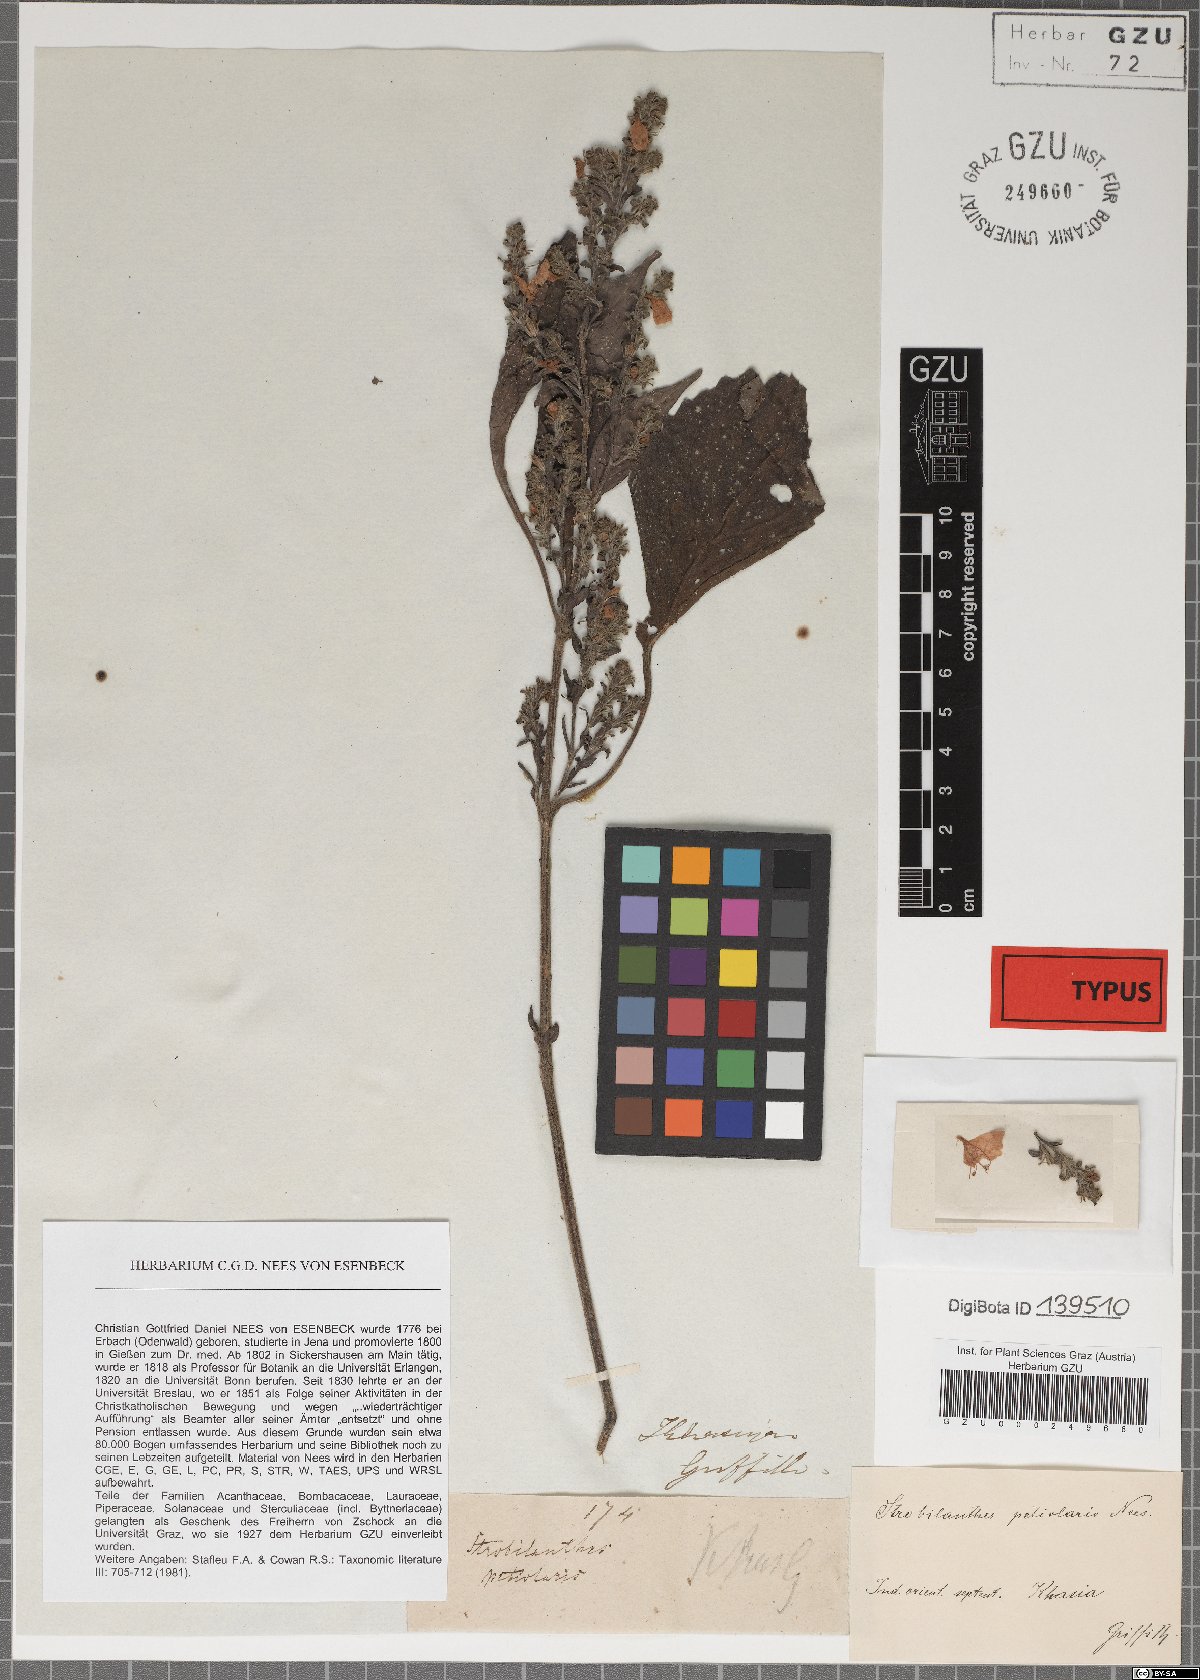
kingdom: Plantae
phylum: Tracheophyta
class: Magnoliopsida
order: Lamiales
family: Acanthaceae
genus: Strobilanthes
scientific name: Strobilanthes monadelpha
